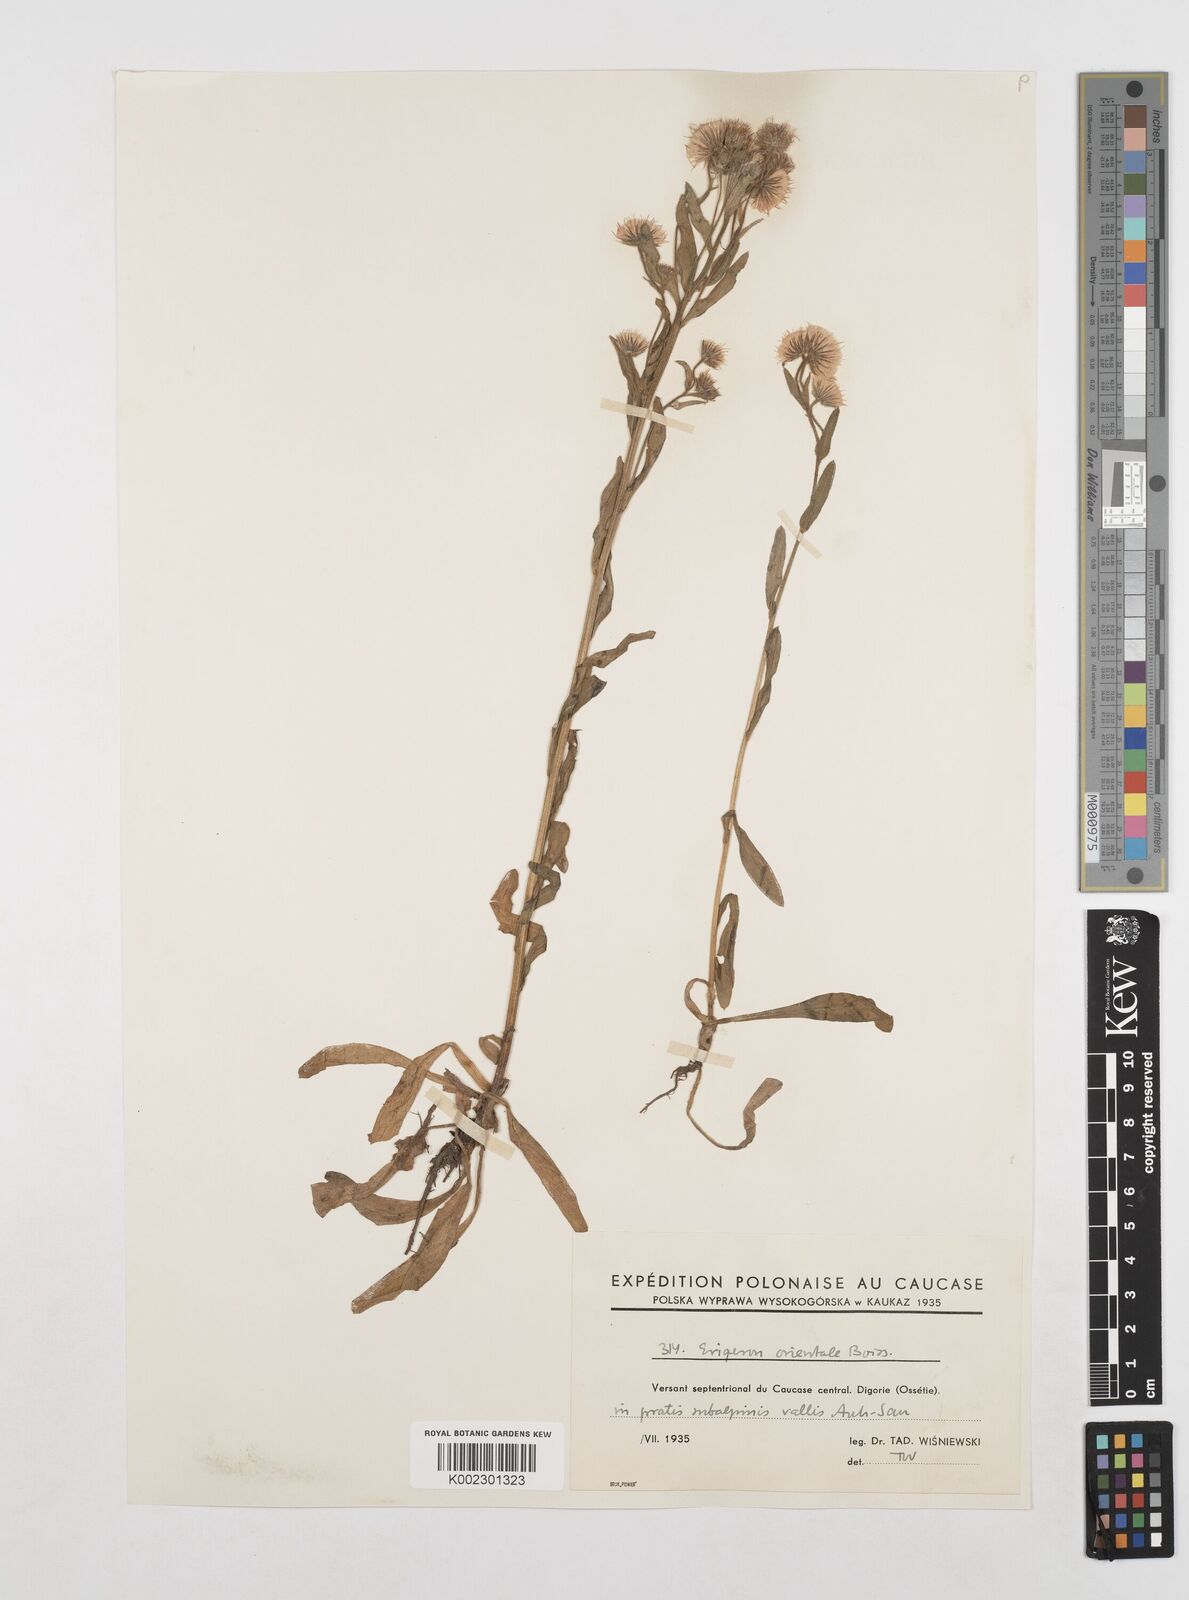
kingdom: Plantae
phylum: Tracheophyta
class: Magnoliopsida
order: Asterales
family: Asteraceae
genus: Erigeron
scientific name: Erigeron acris
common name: Blue fleabane
